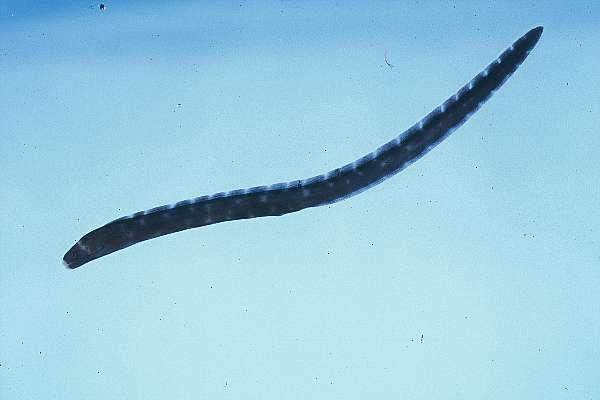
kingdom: Animalia
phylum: Chordata
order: Anguilliformes
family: Muraenidae
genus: Gymnothorax
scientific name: Gymnothorax flavimarginatus
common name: Yellow-edged moray
